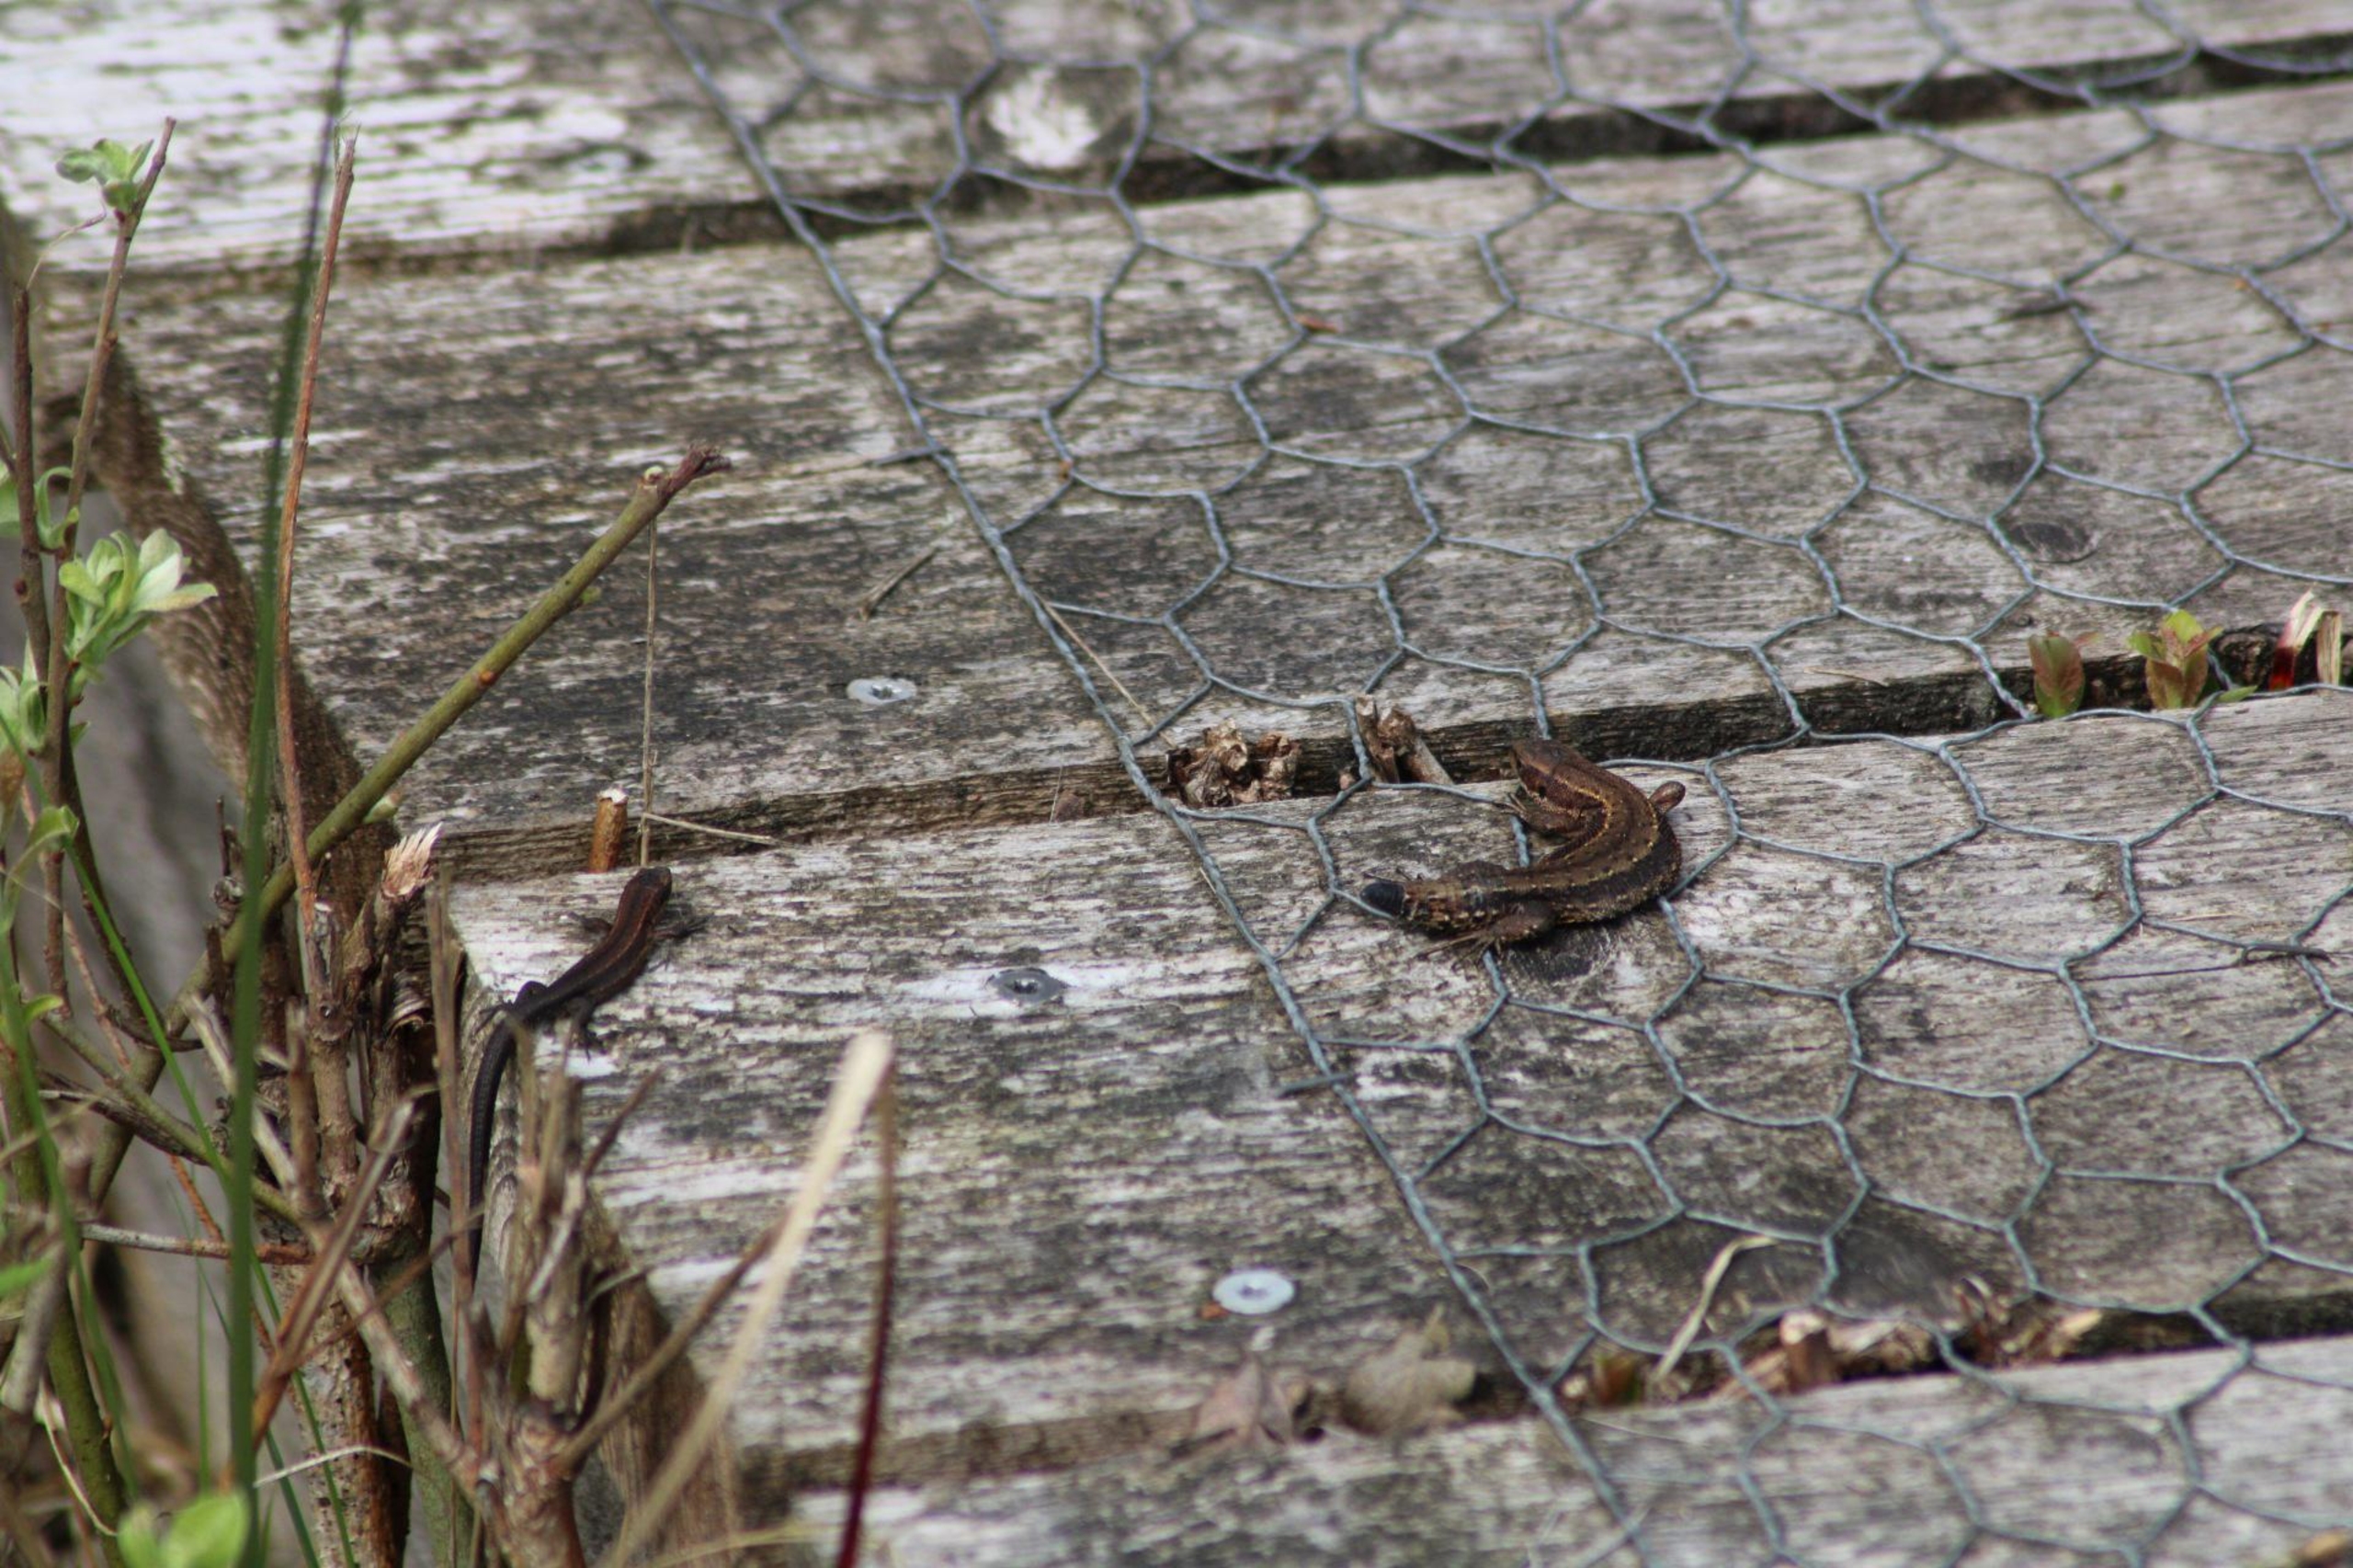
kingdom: Animalia
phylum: Chordata
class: Squamata
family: Lacertidae
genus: Zootoca
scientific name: Zootoca vivipara
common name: Skovfirben
